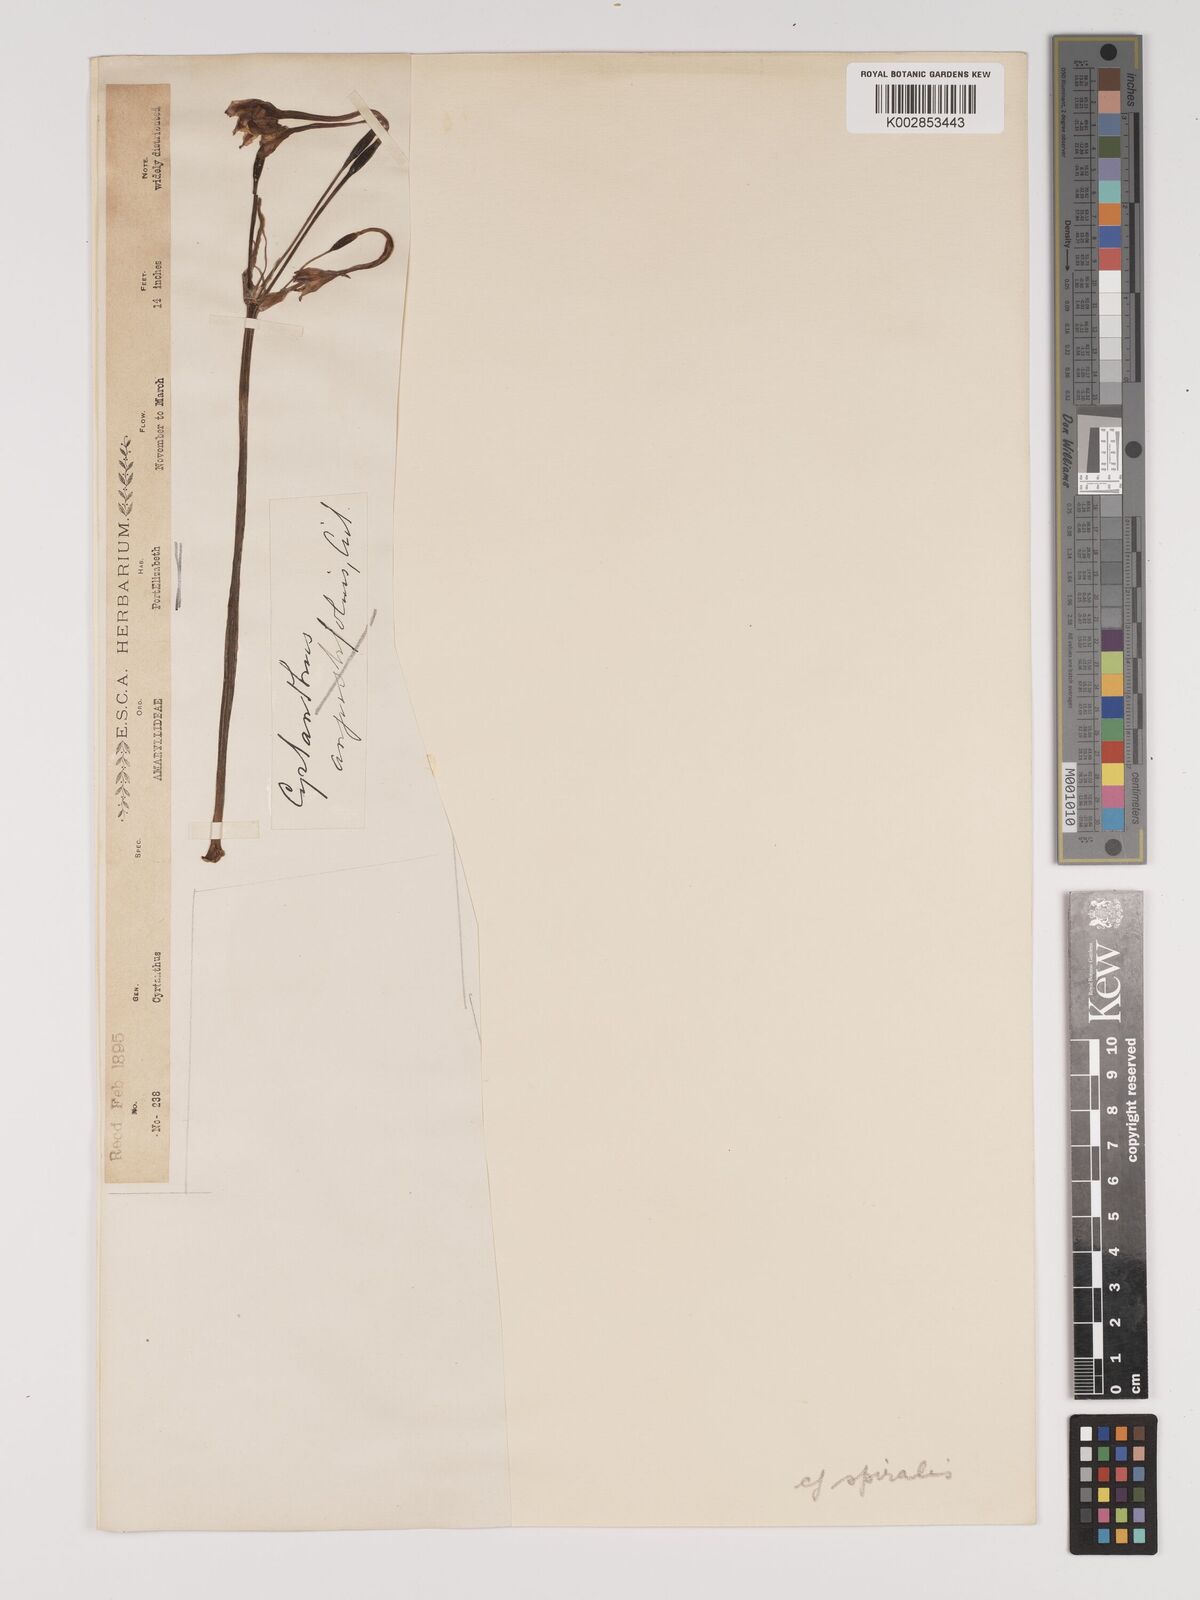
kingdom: Plantae
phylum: Tracheophyta
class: Liliopsida
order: Asparagales
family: Amaryllidaceae
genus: Cyrtanthus
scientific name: Cyrtanthus spiralis
